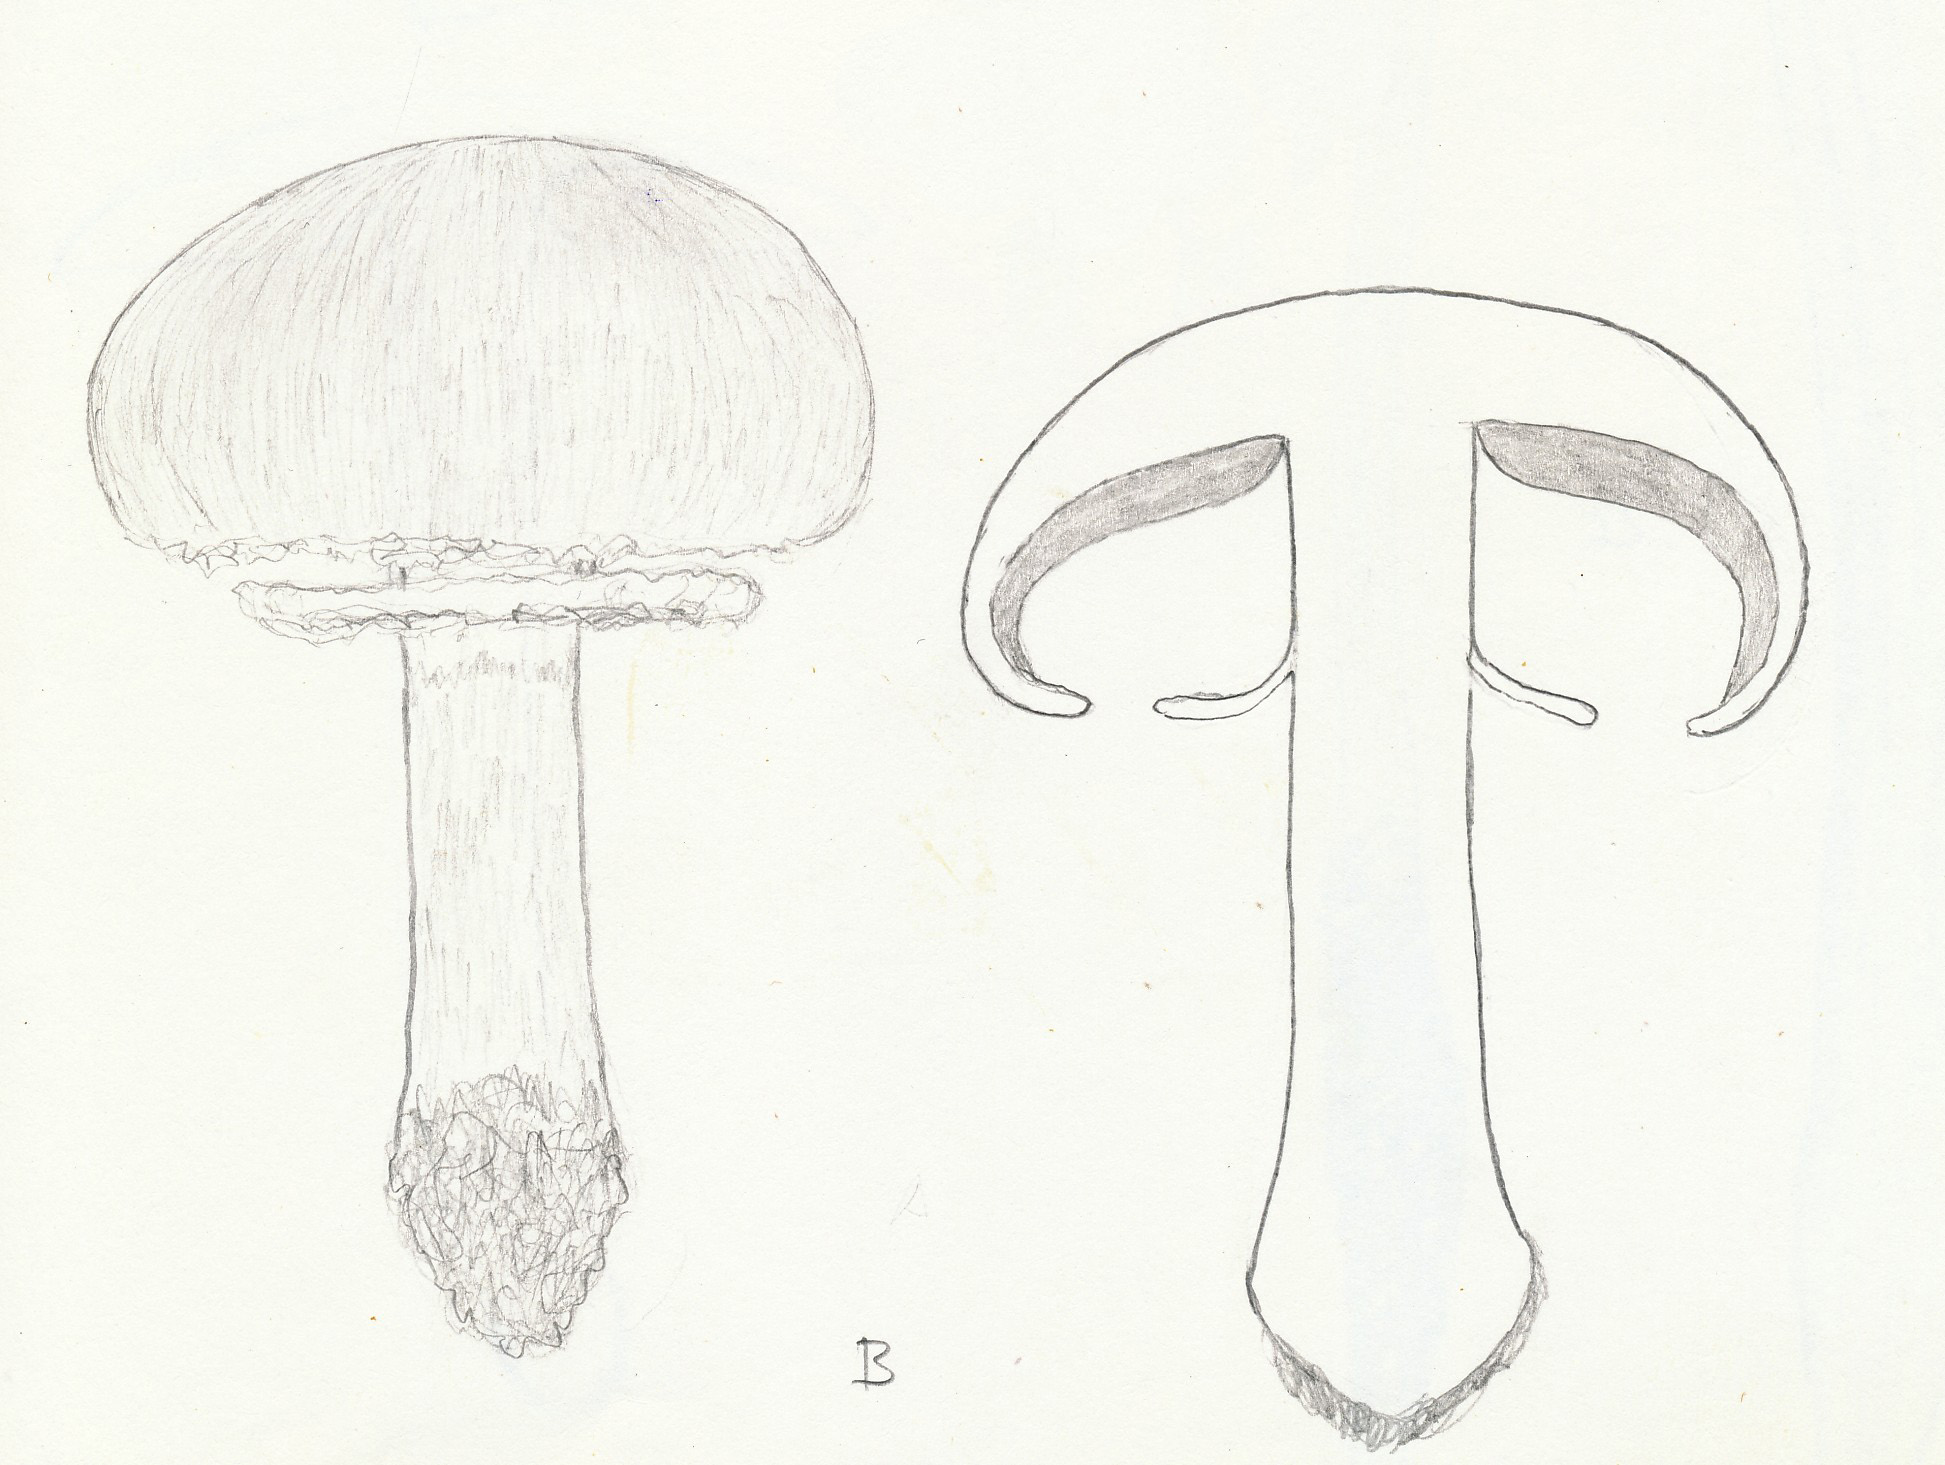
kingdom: Fungi
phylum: Basidiomycota
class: Agaricomycetes
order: Russulales
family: Russulaceae
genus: Lactarius
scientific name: Lactarius fulvissimus
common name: ræve-mælkehat
